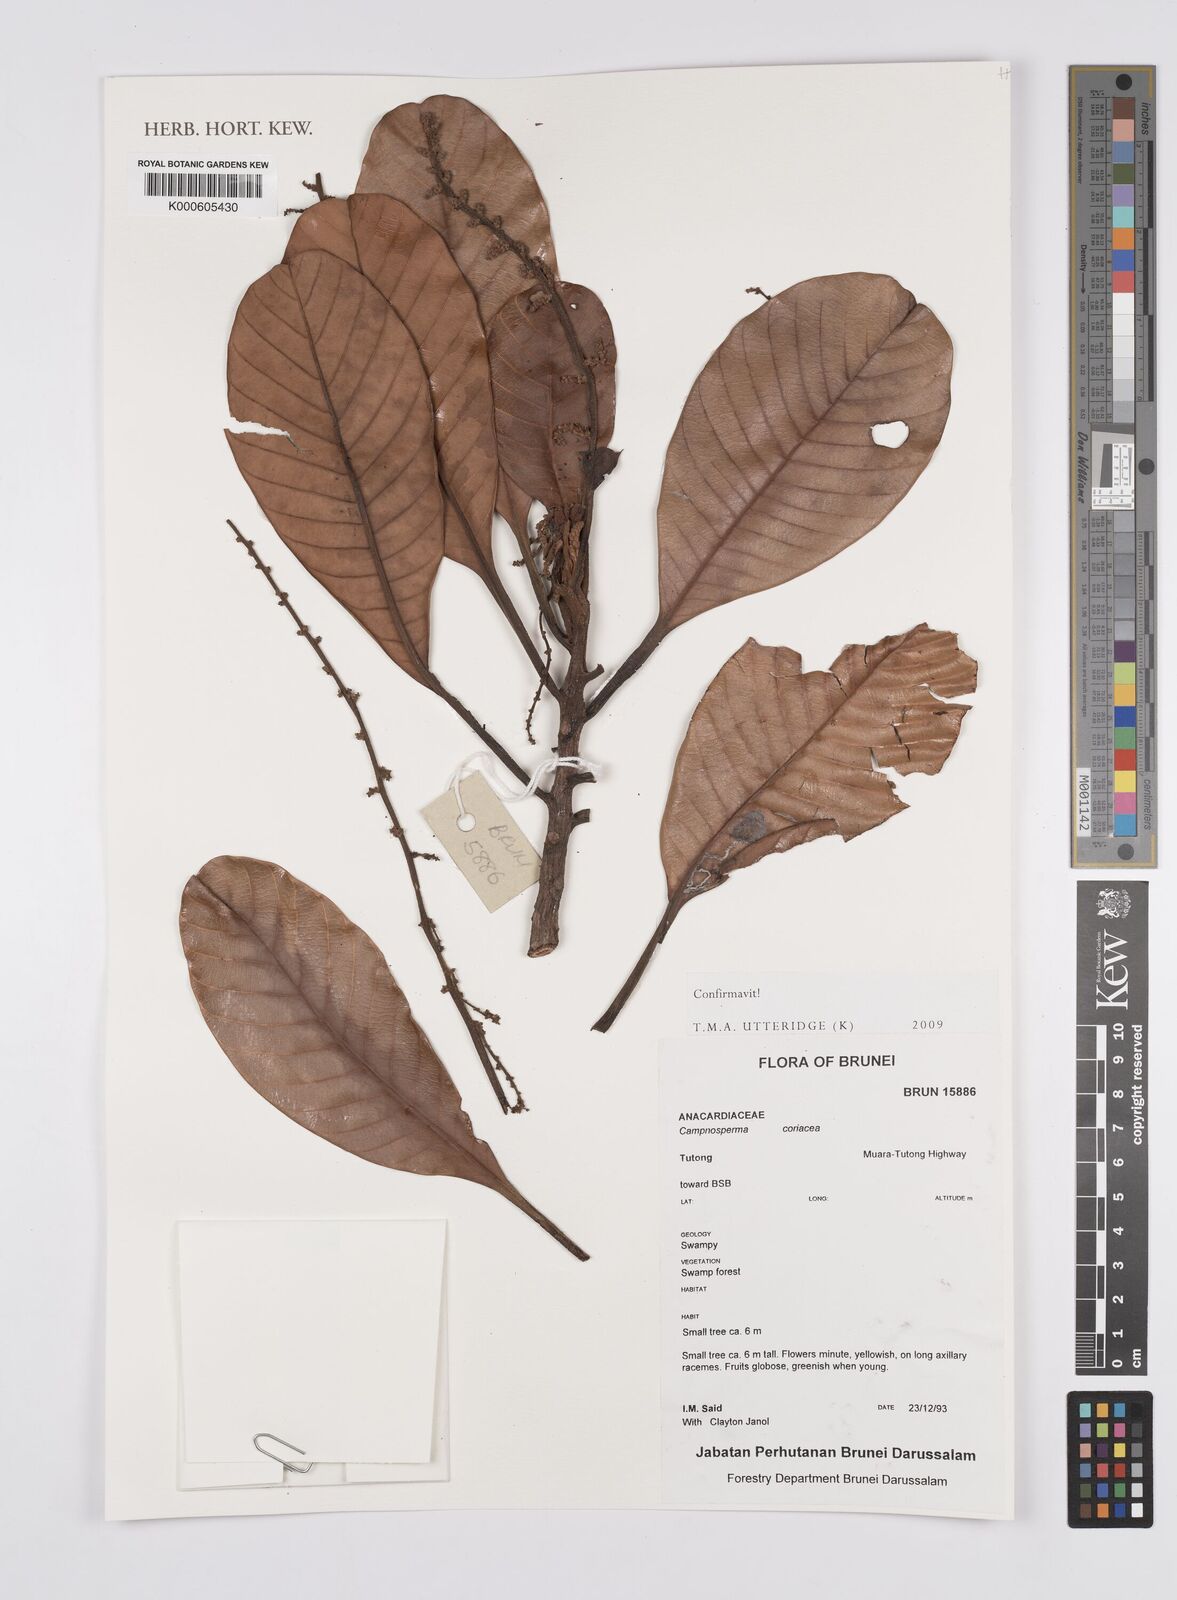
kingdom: Plantae
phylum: Tracheophyta
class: Magnoliopsida
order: Sapindales
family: Anacardiaceae
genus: Campnosperma
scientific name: Campnosperma
